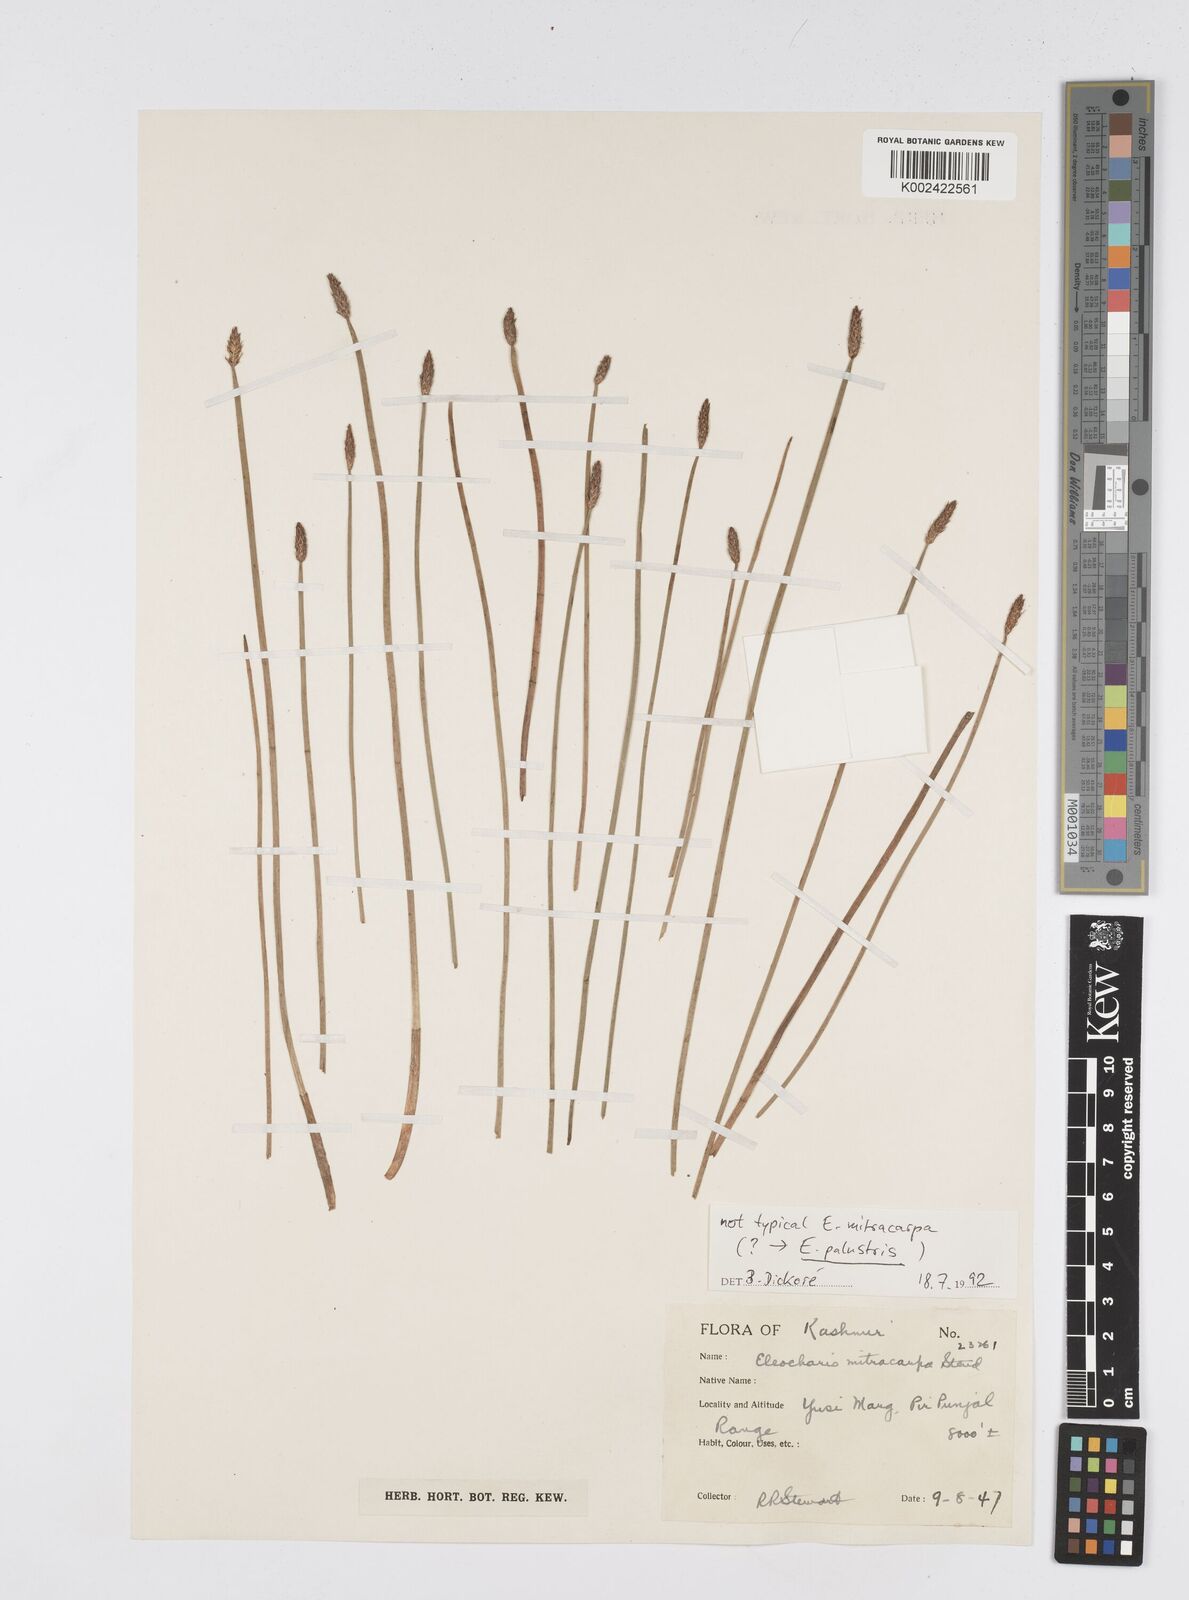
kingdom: Plantae
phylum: Tracheophyta
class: Liliopsida
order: Poales
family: Cyperaceae
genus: Eleocharis
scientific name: Eleocharis mitracarpa
